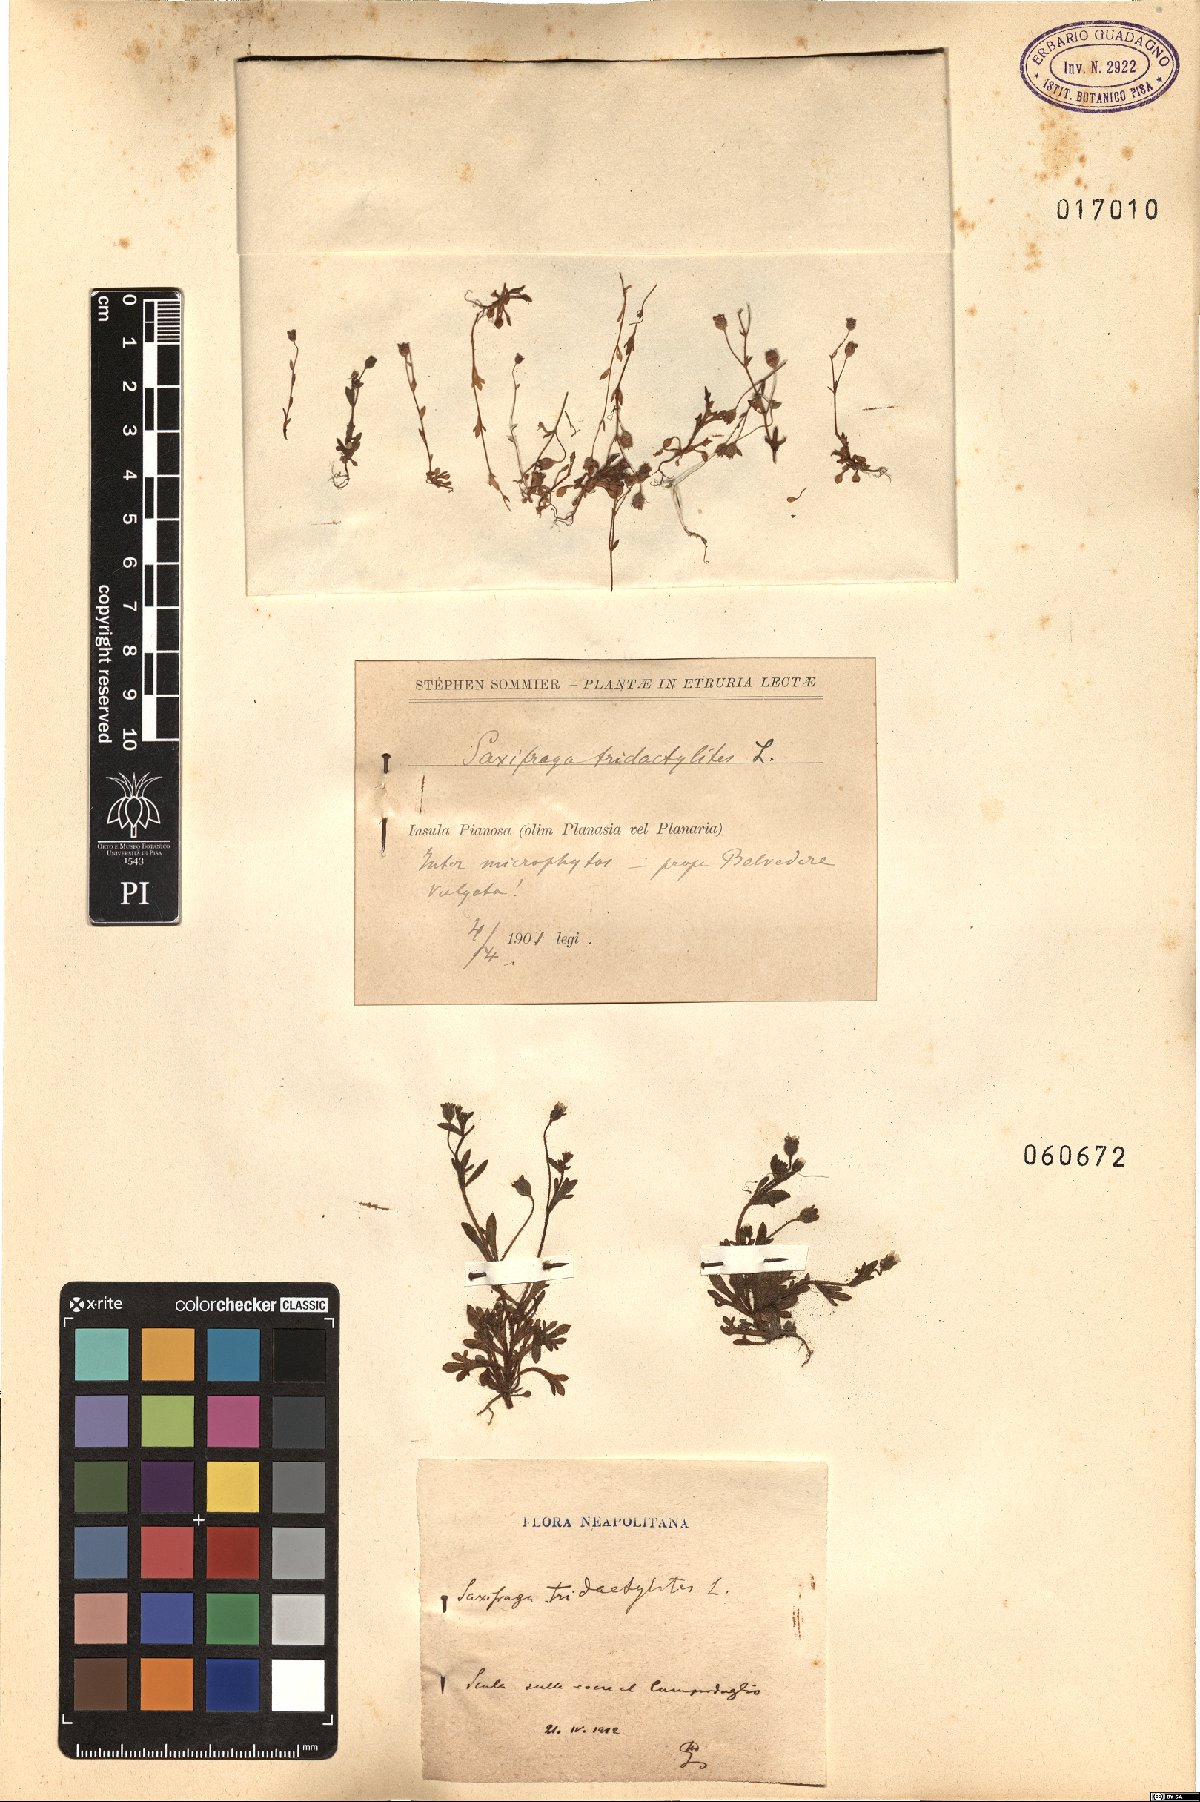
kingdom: Plantae
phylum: Tracheophyta
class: Magnoliopsida
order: Saxifragales
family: Saxifragaceae
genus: Saxifraga
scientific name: Saxifraga tridactylites
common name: Rue-leaved saxifrage
